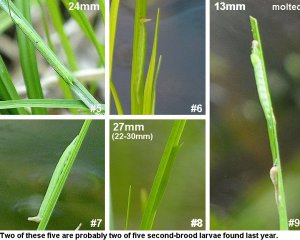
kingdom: Animalia
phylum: Arthropoda
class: Insecta
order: Lepidoptera
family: Nymphalidae
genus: Lethe
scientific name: Lethe eurydice
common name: Appalachian Eyed Brown
